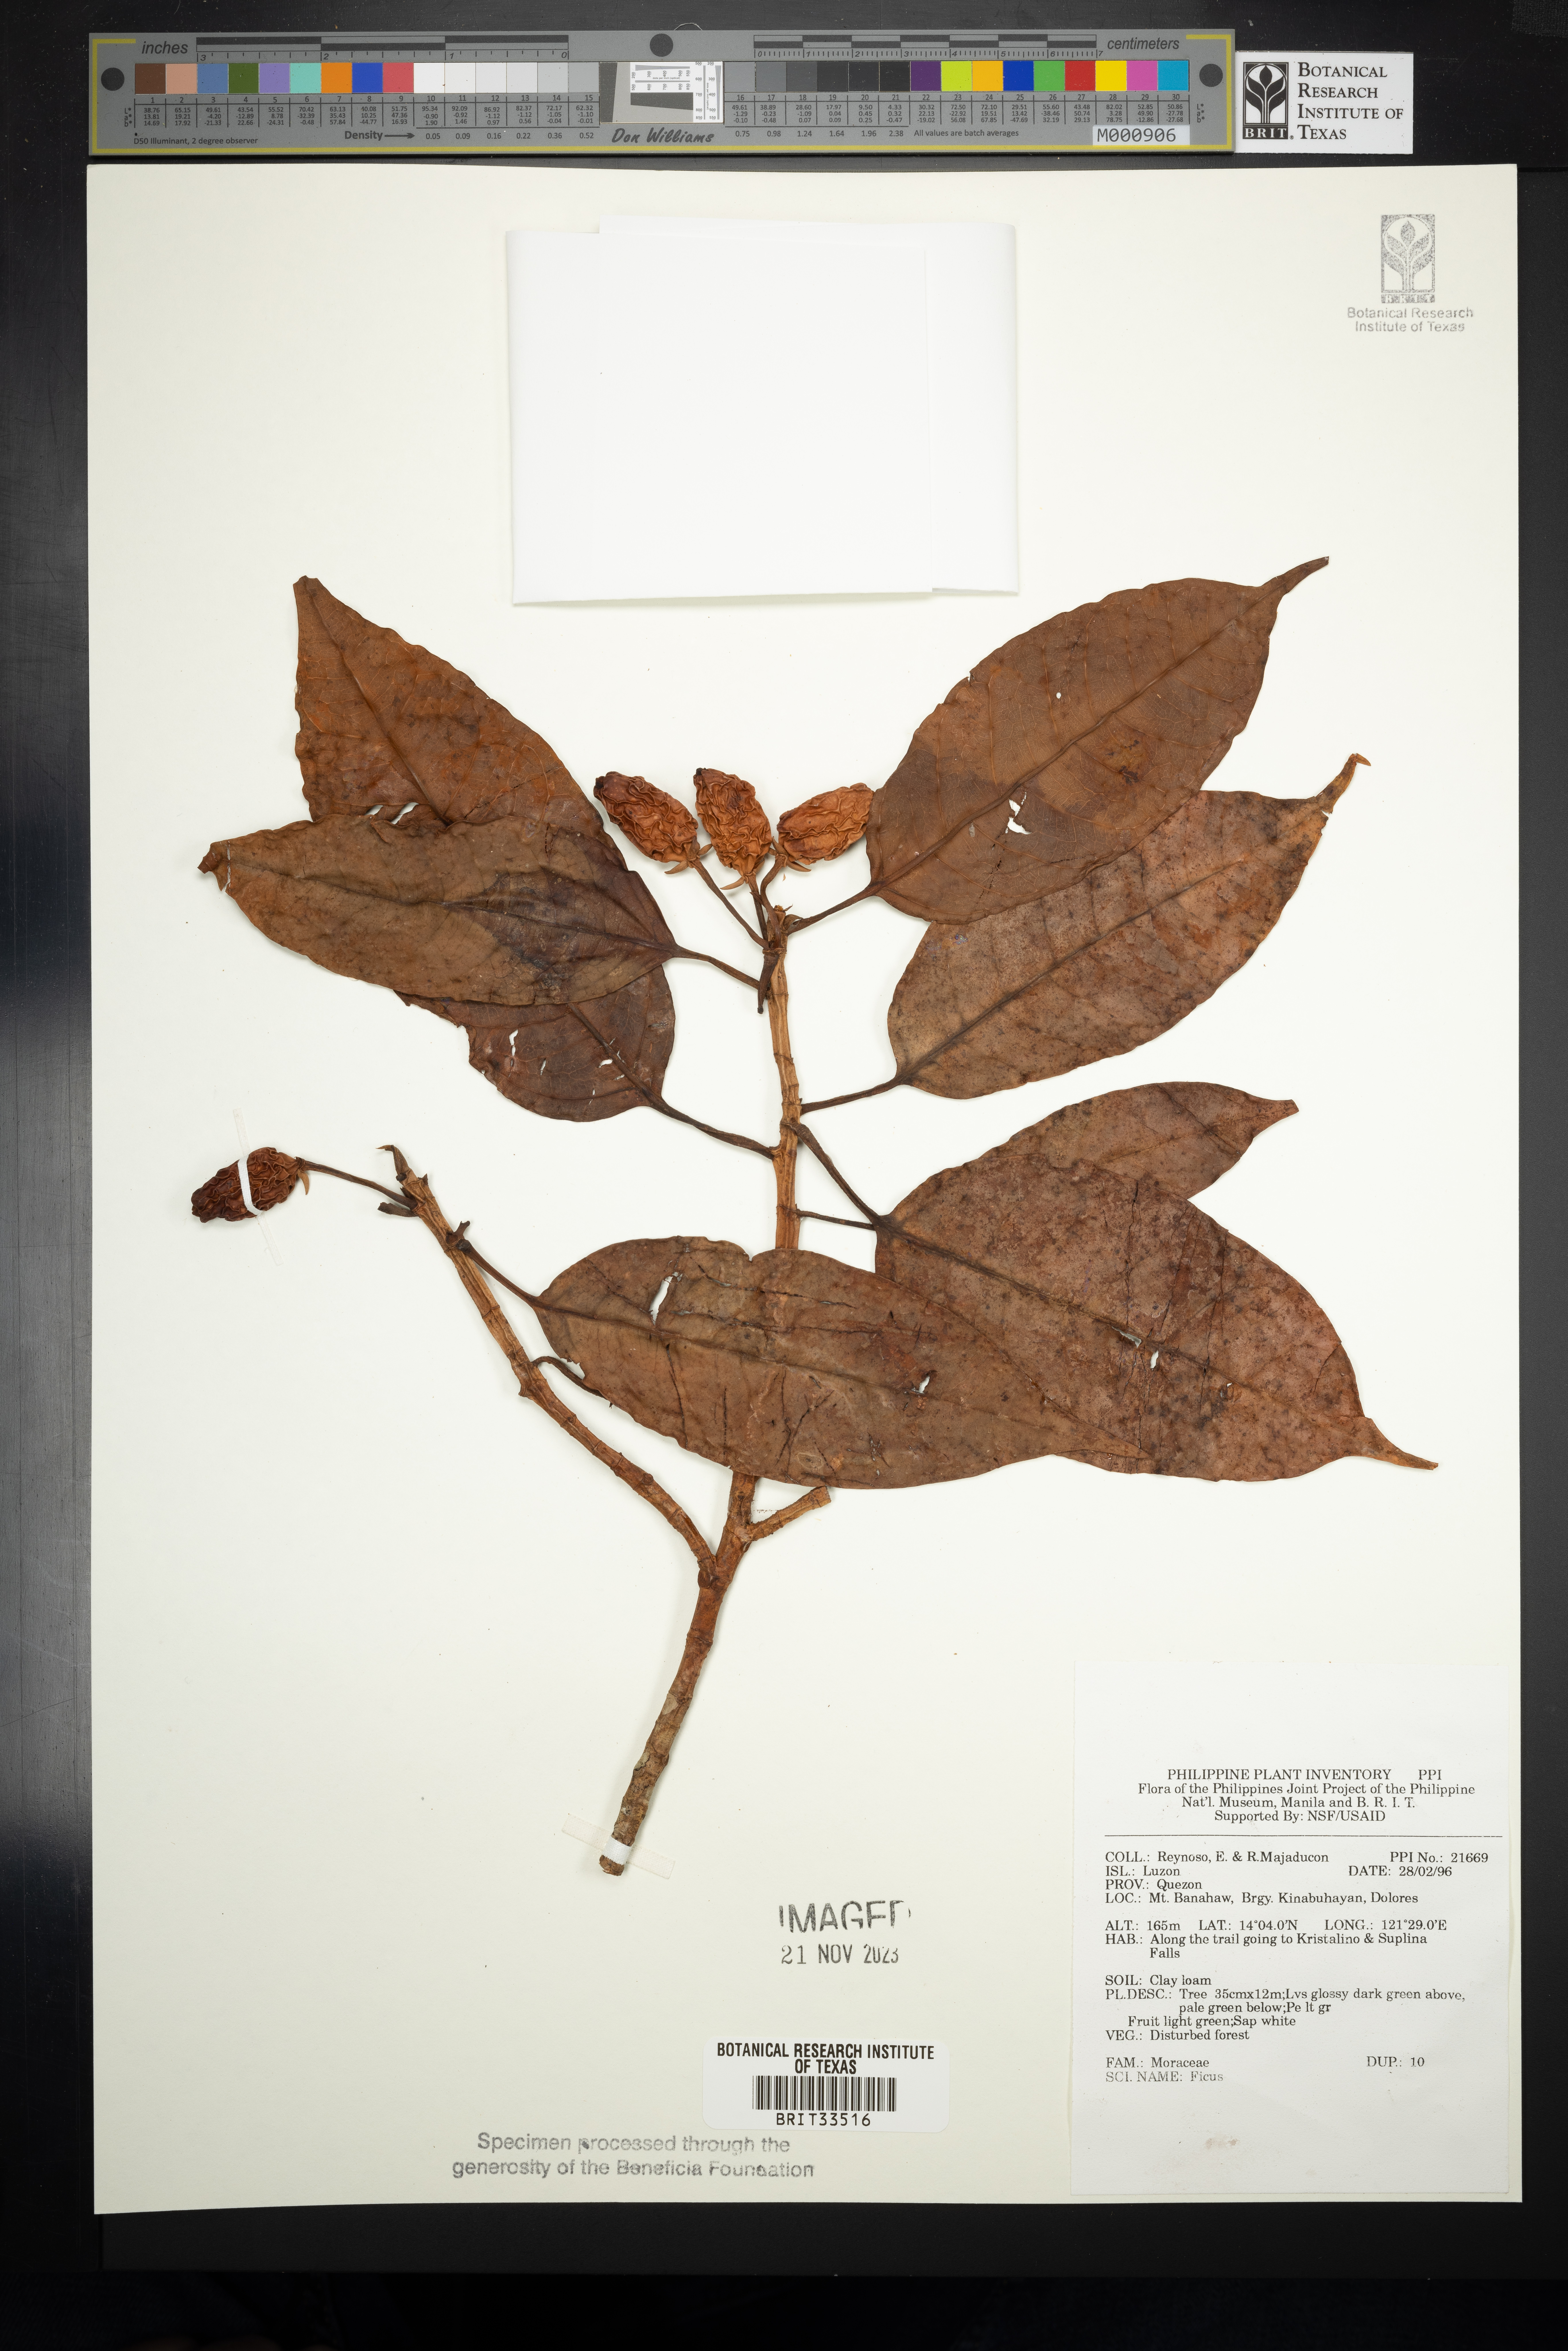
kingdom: Plantae
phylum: Tracheophyta
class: Magnoliopsida
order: Rosales
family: Moraceae
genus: Ficus
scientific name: Ficus
